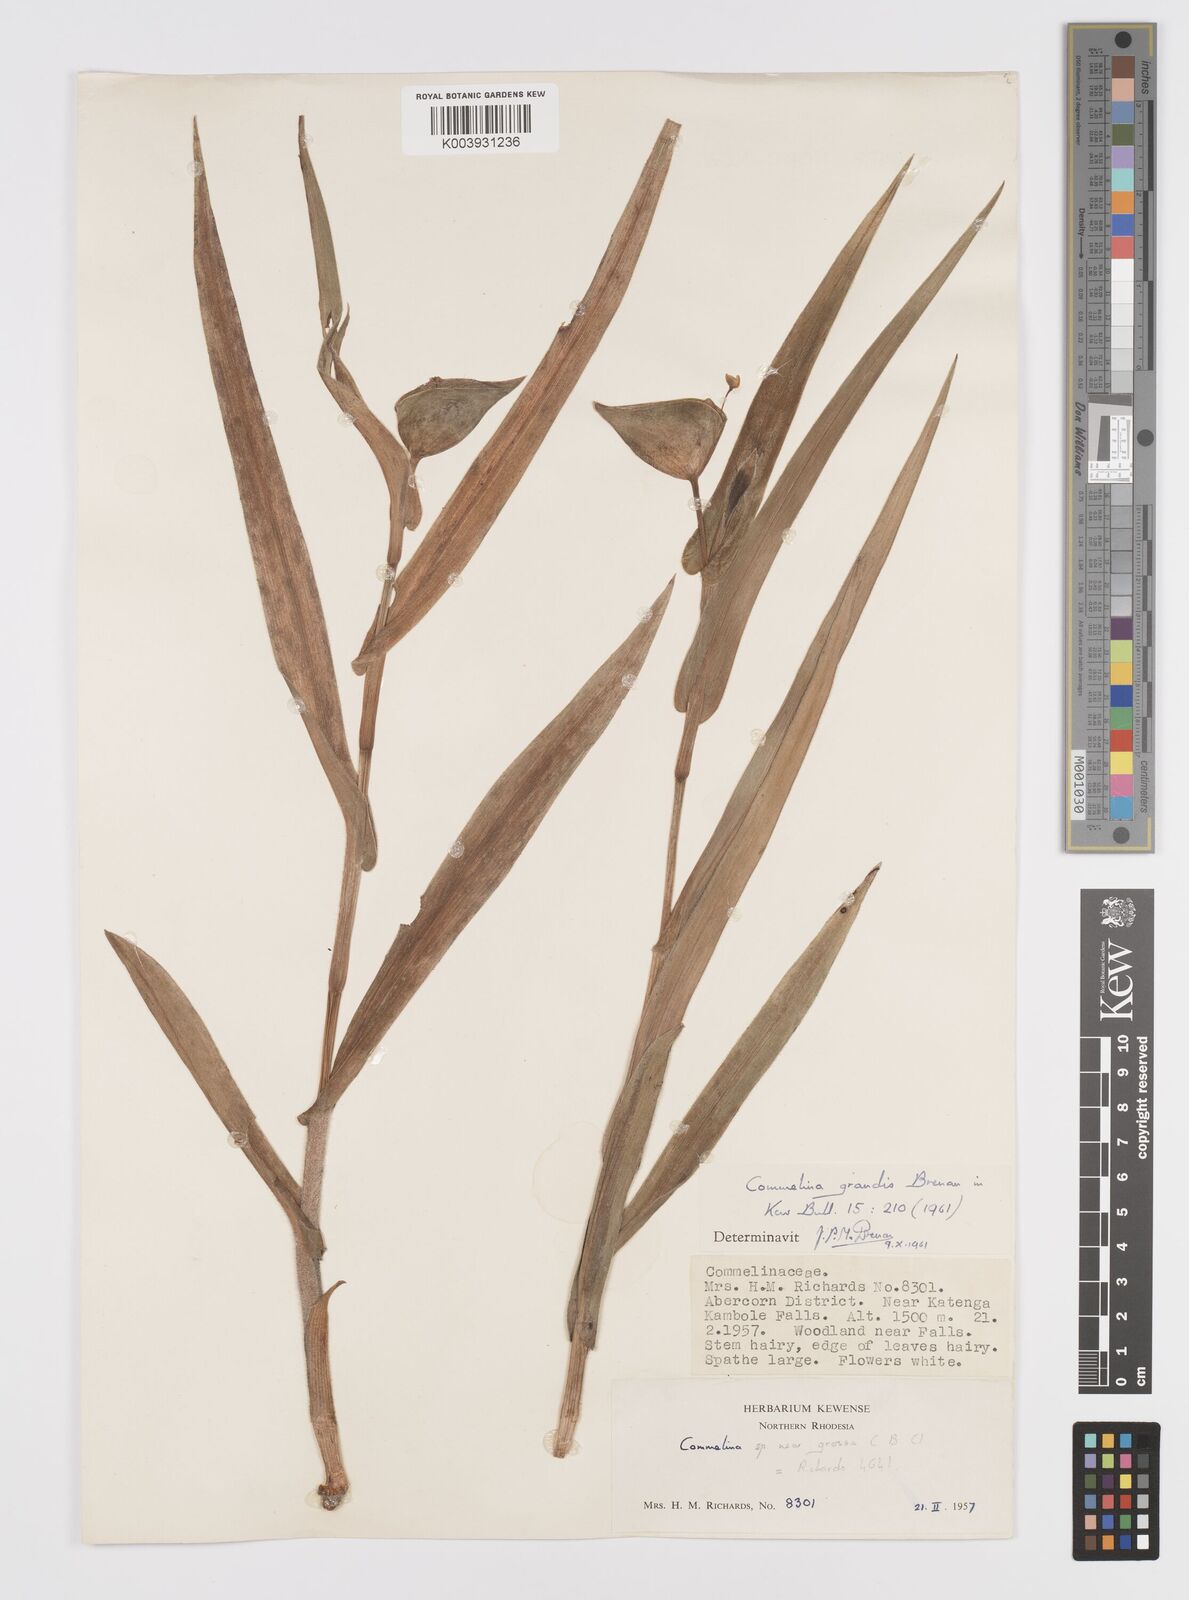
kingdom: Plantae
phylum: Tracheophyta
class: Liliopsida
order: Commelinales
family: Commelinaceae
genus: Commelina
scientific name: Commelina grandis
